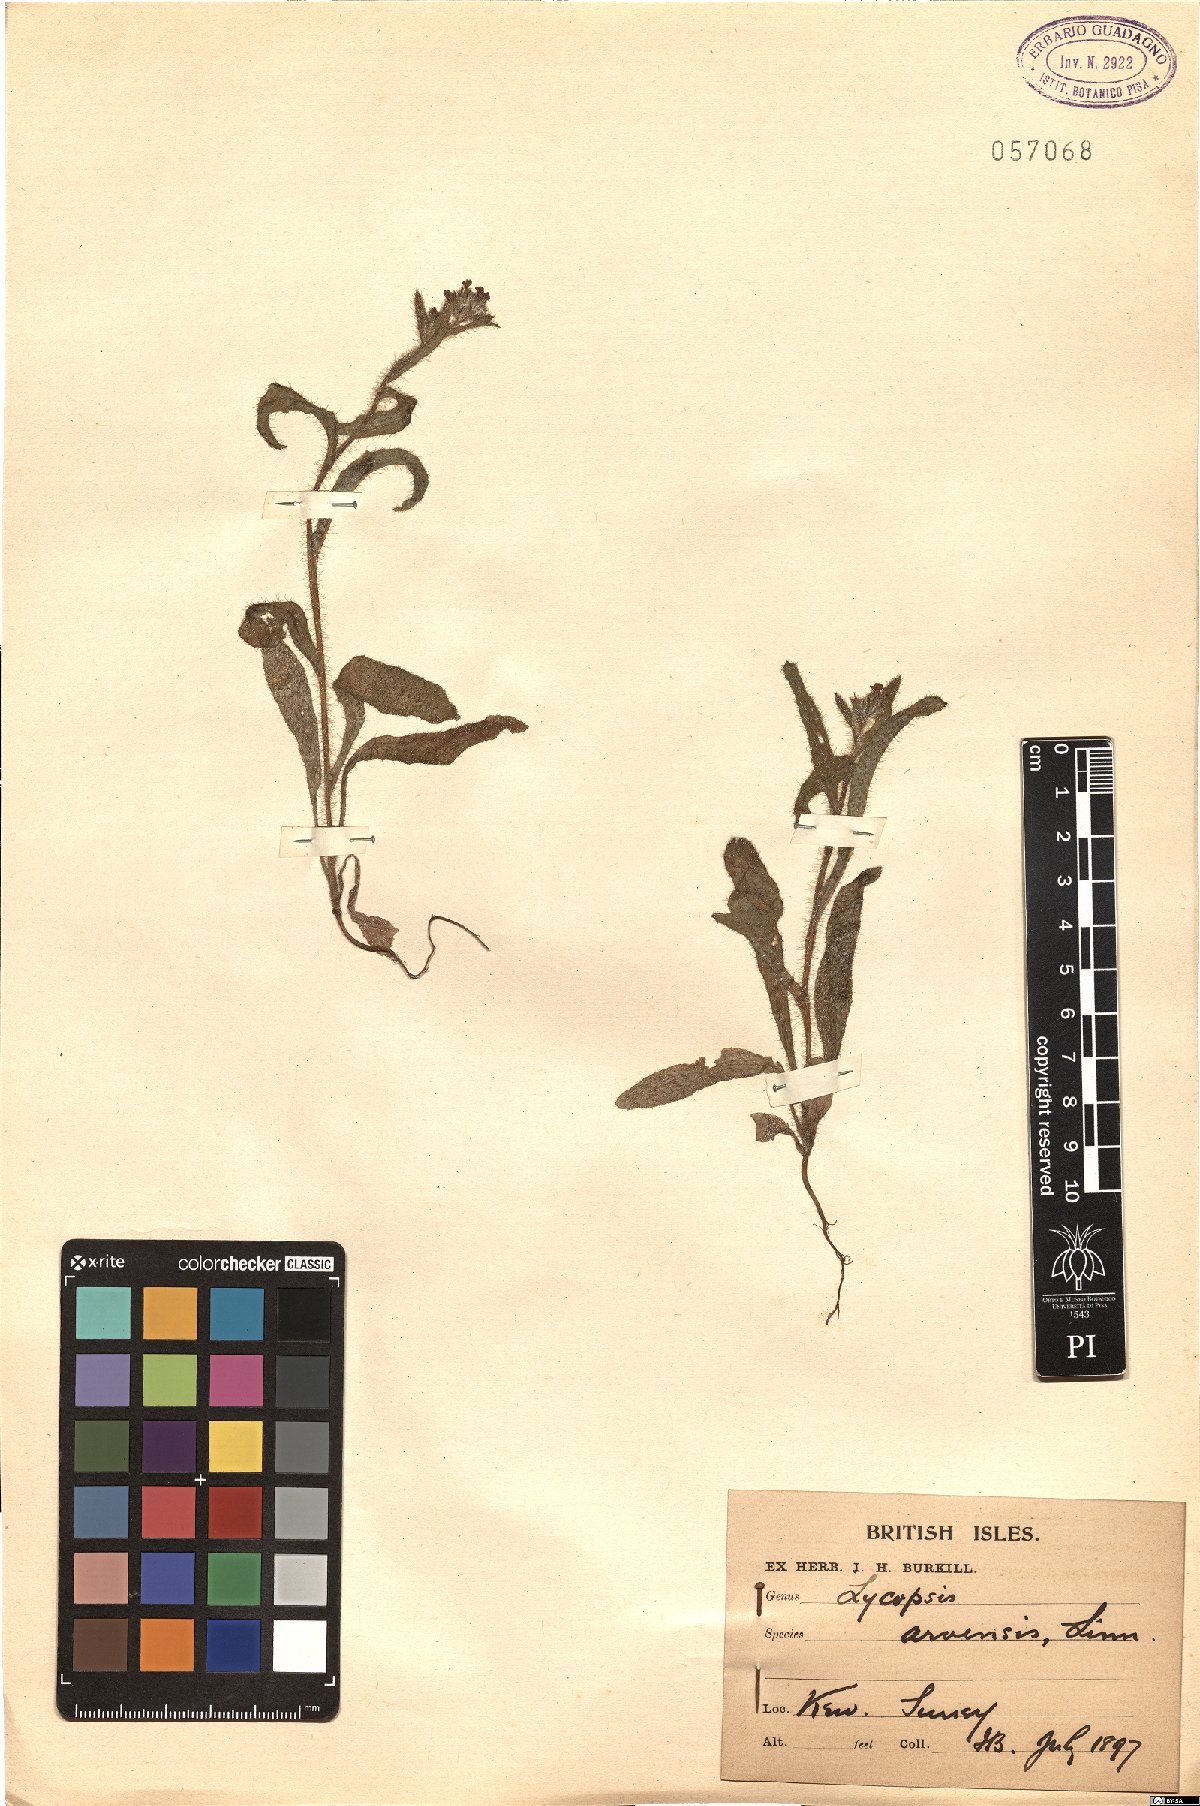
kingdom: Plantae
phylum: Tracheophyta
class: Magnoliopsida
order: Boraginales
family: Boraginaceae
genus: Lycopsis
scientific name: Lycopsis arvensis
